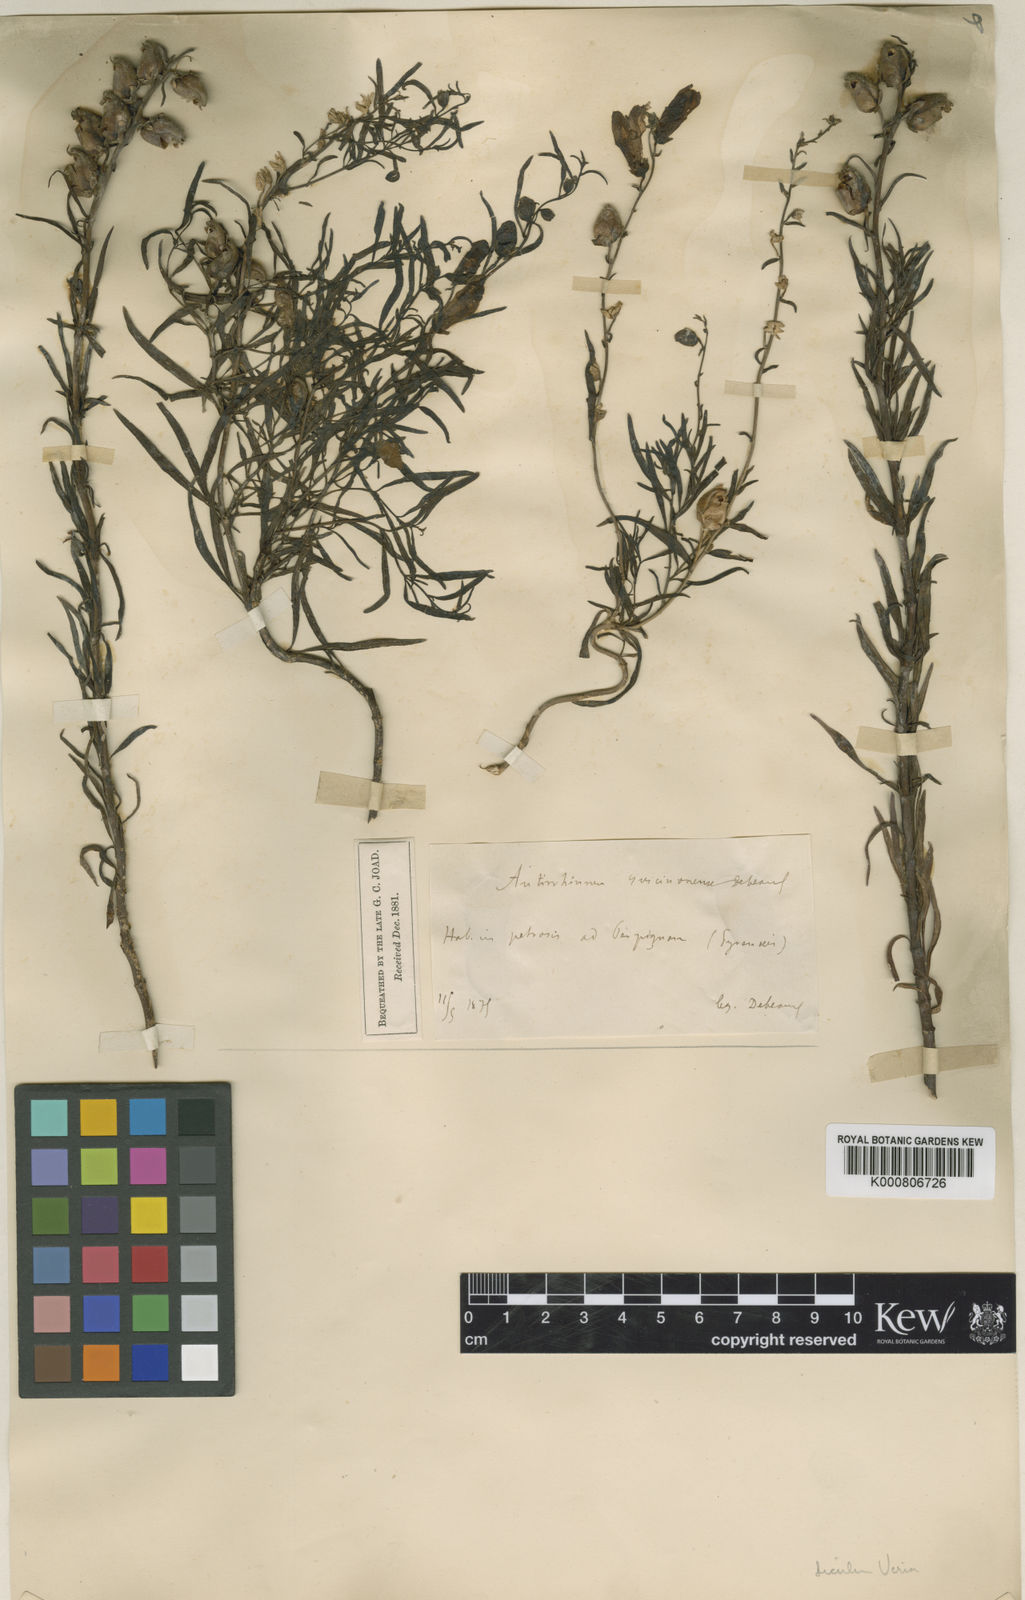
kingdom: Plantae
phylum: Tracheophyta
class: Magnoliopsida
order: Lamiales
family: Plantaginaceae
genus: Antirrhinum
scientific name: Antirrhinum siculum
